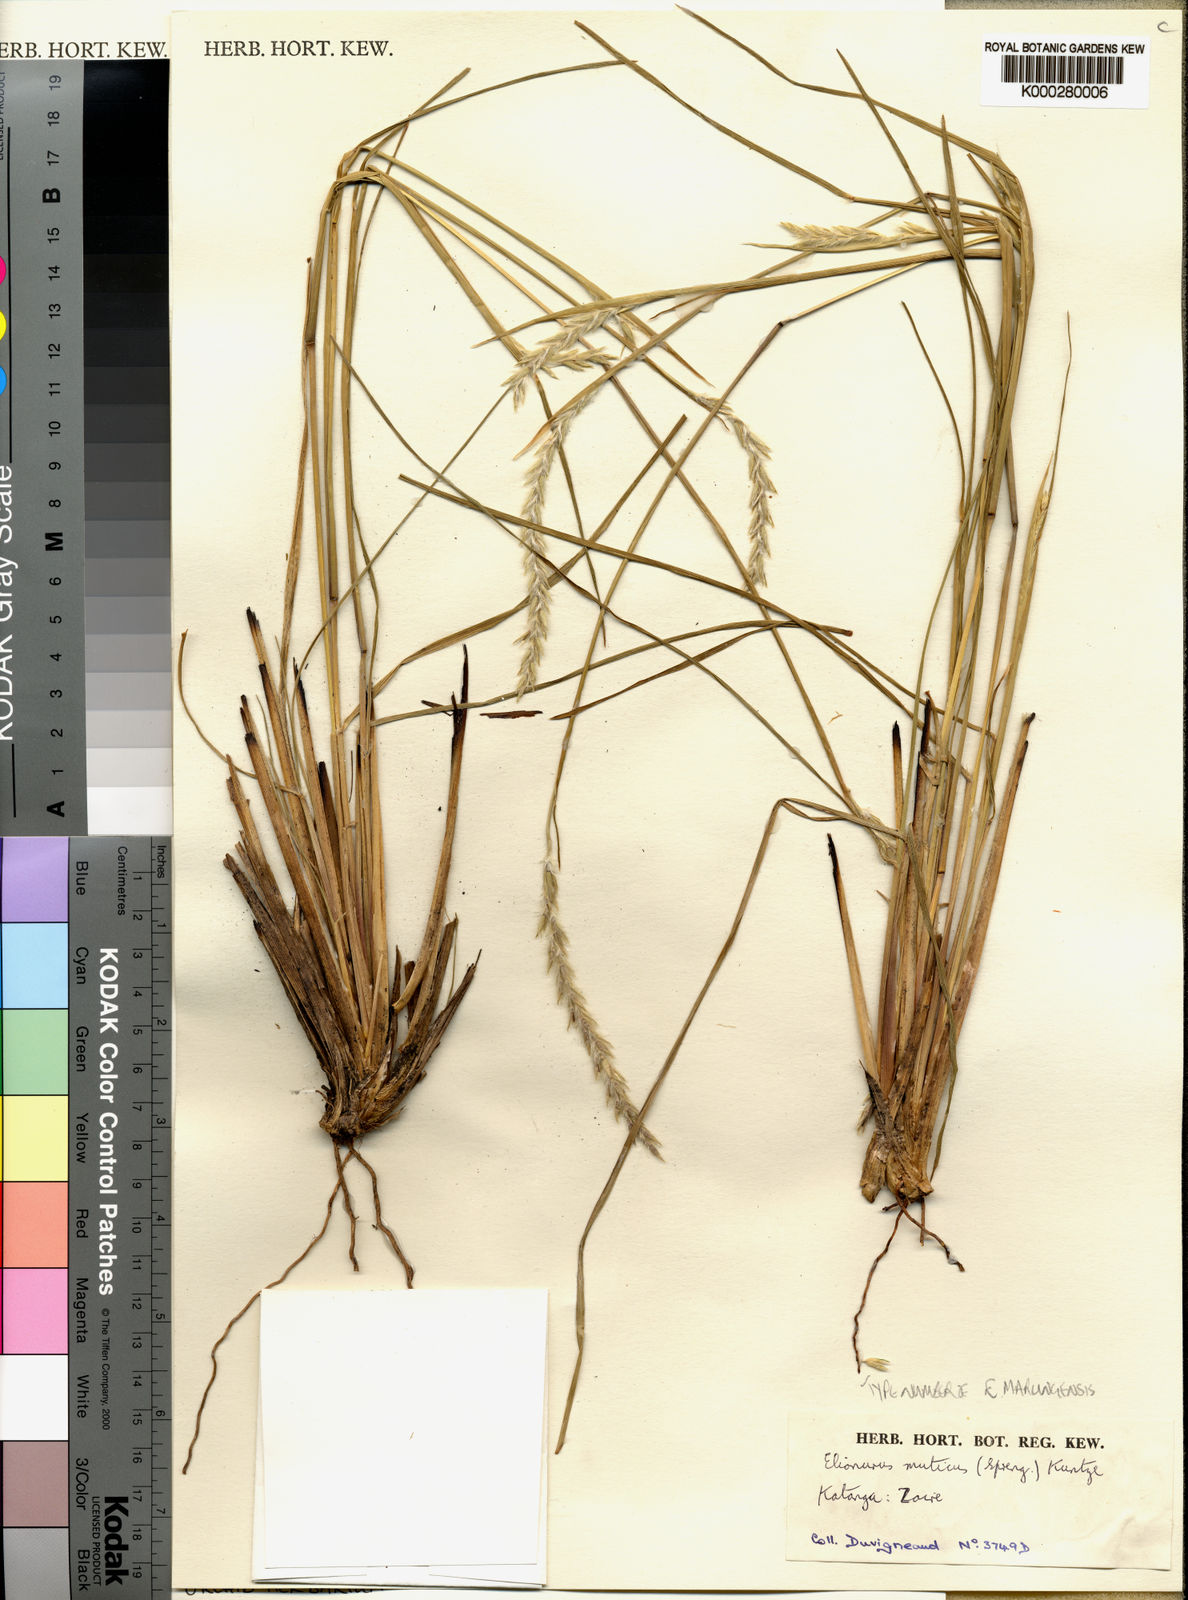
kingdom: Plantae
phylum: Tracheophyta
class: Liliopsida
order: Poales
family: Poaceae
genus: Elionurus
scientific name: Elionurus muticus
